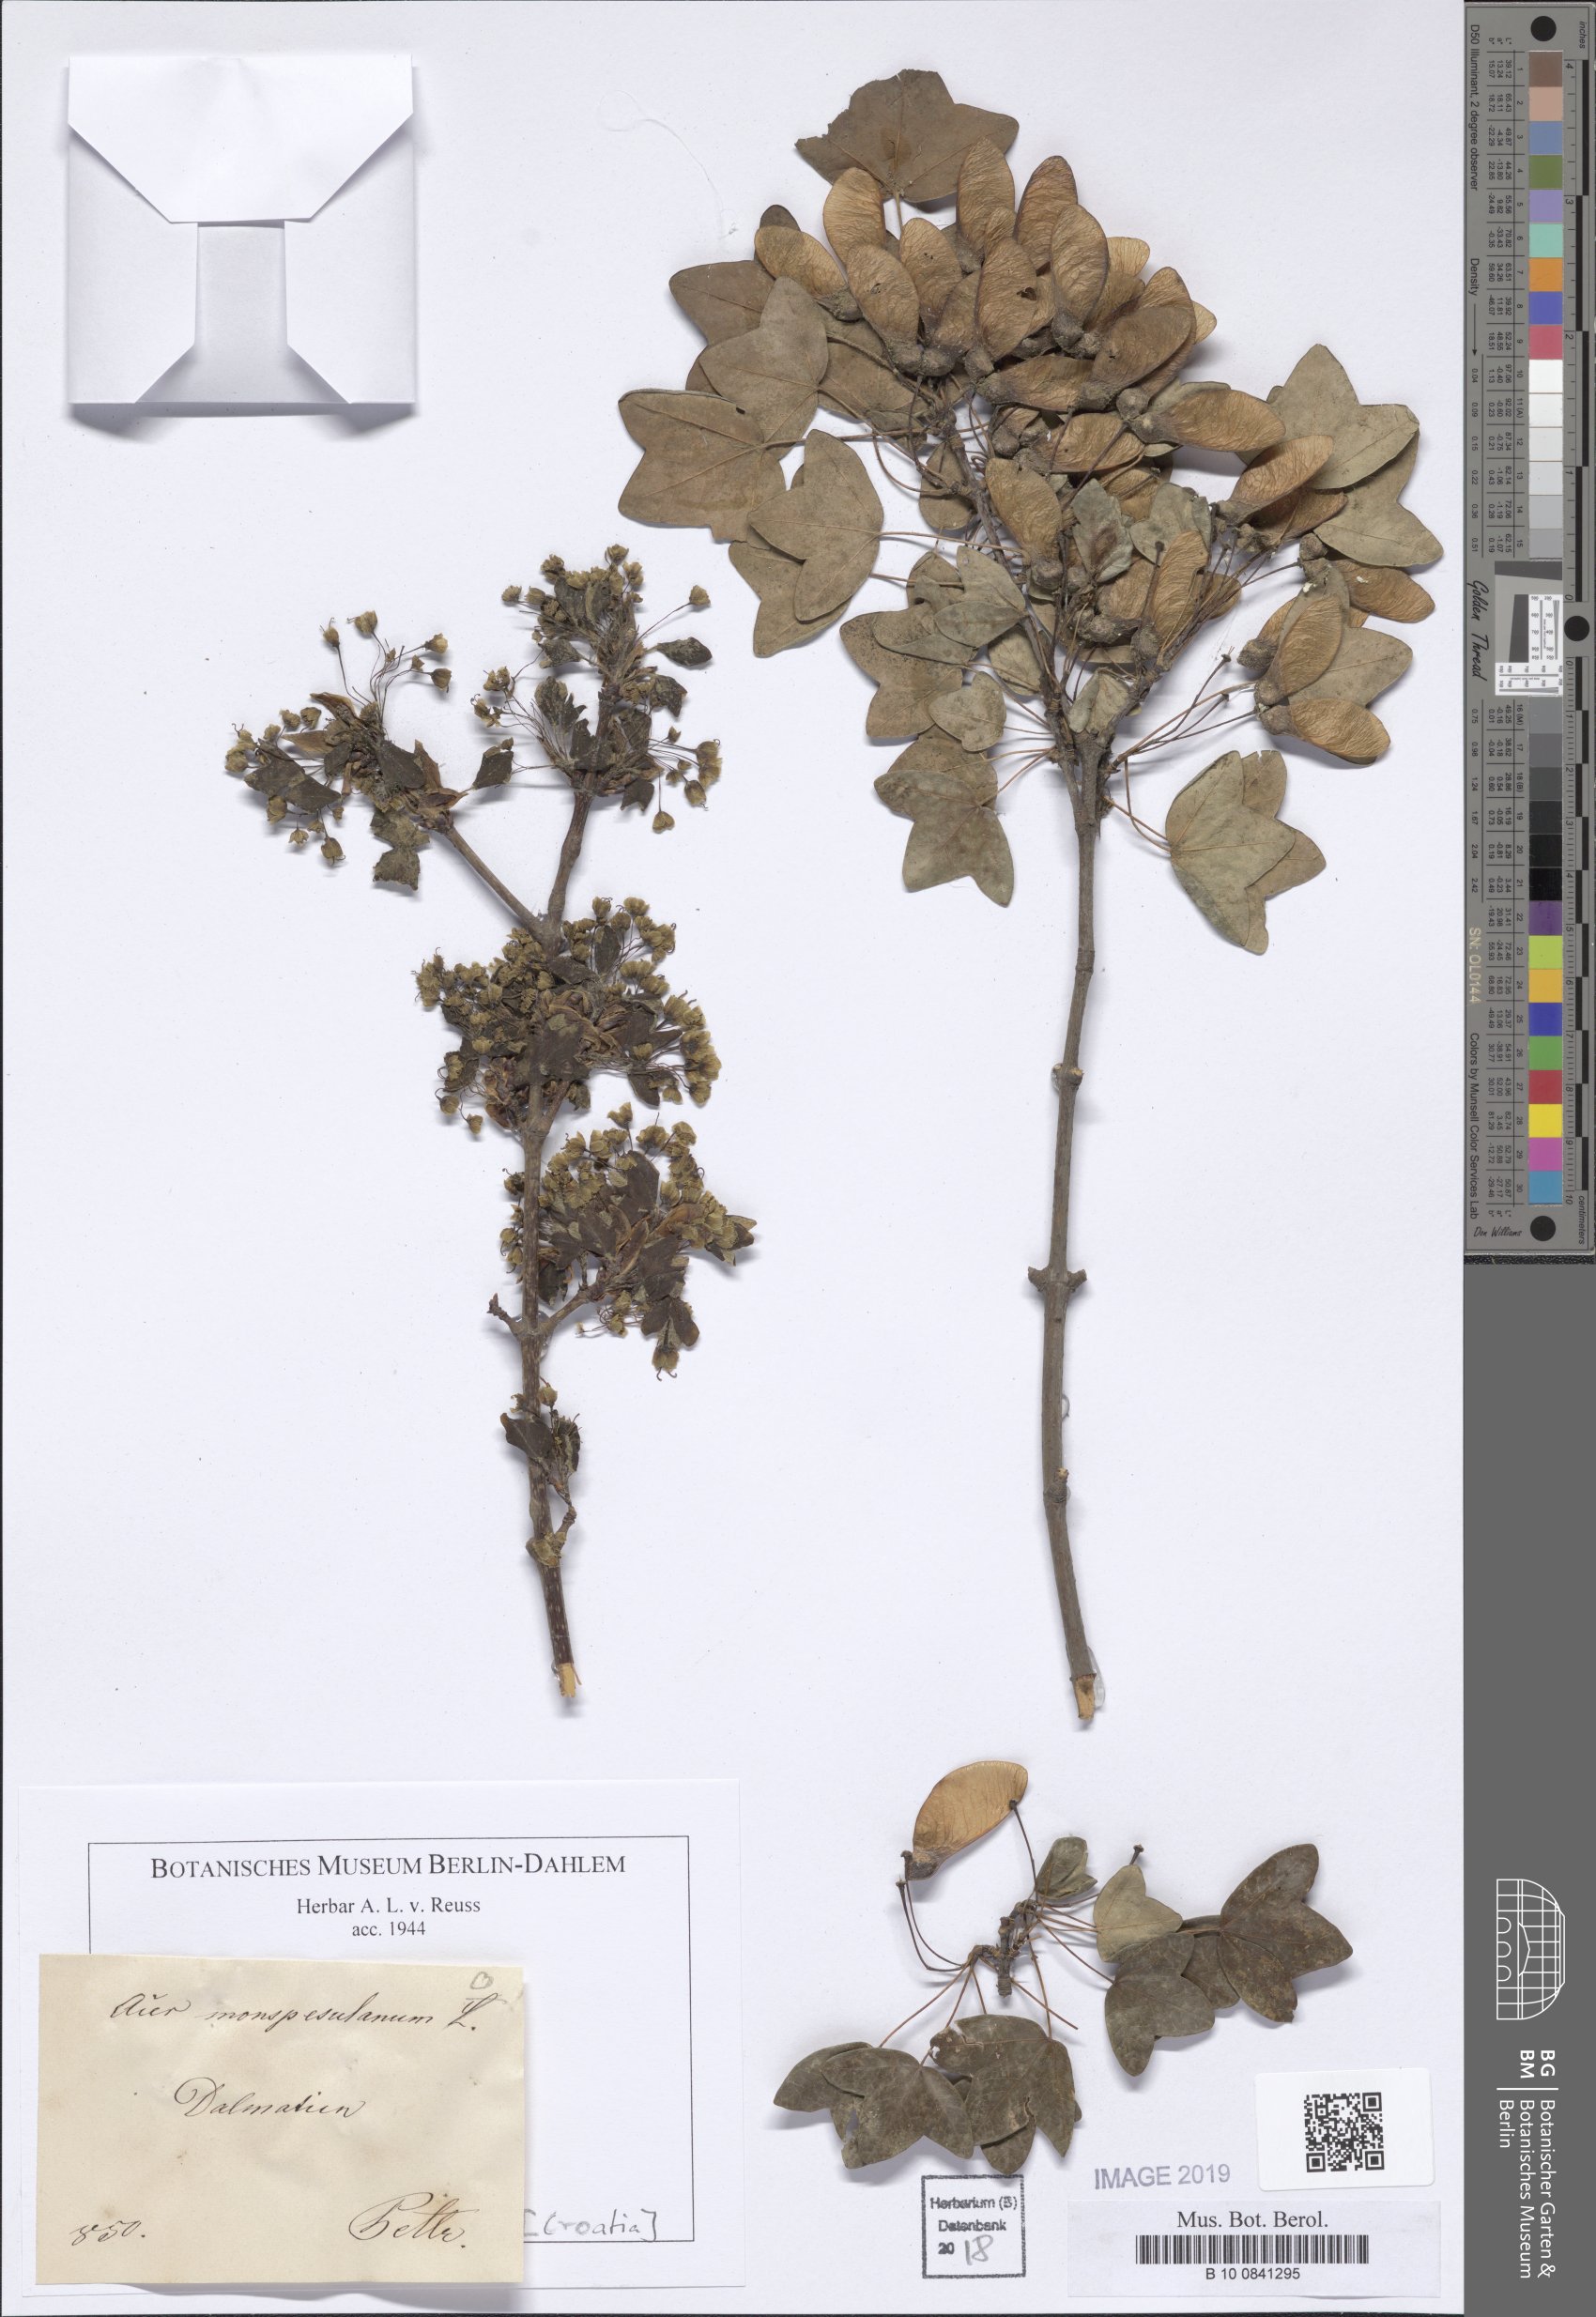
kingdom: Plantae
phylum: Tracheophyta
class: Magnoliopsida
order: Sapindales
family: Sapindaceae
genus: Acer
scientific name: Acer monspessulanum
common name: Montpellier maple
